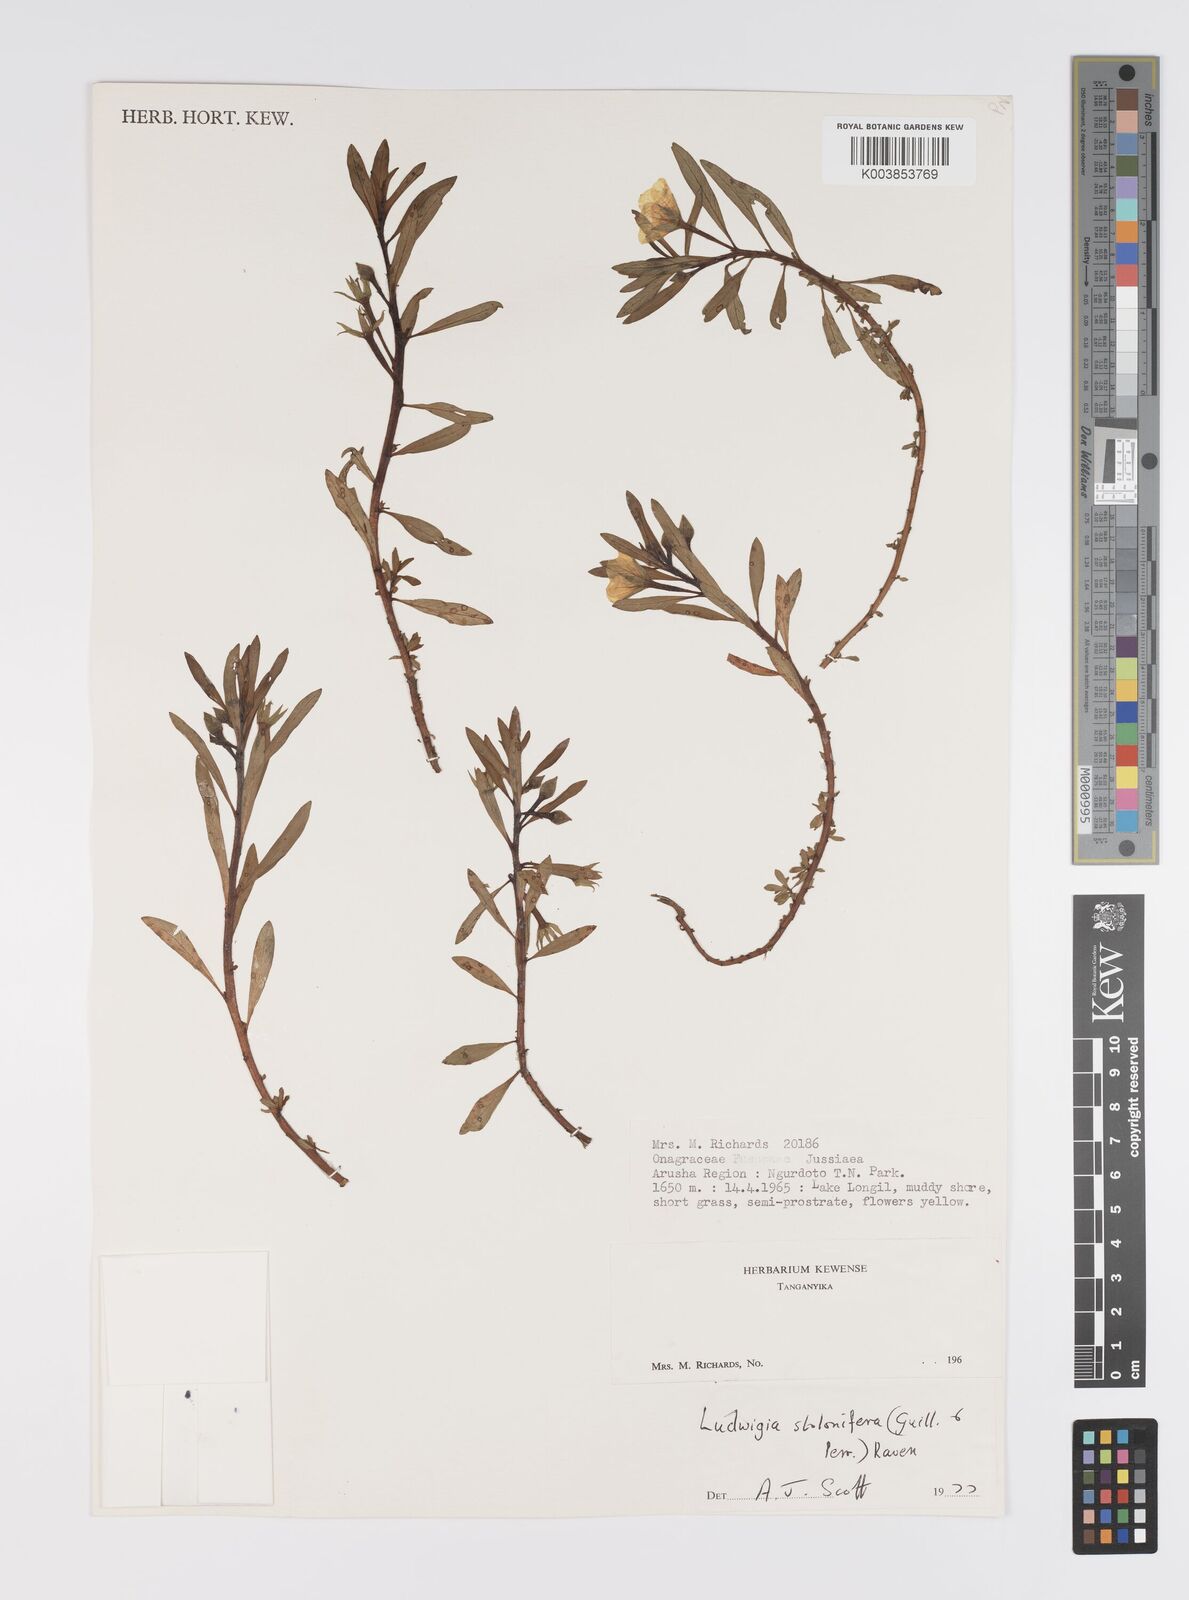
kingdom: Plantae
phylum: Tracheophyta
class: Magnoliopsida
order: Myrtales
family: Onagraceae
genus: Ludwigia
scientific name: Ludwigia repens
